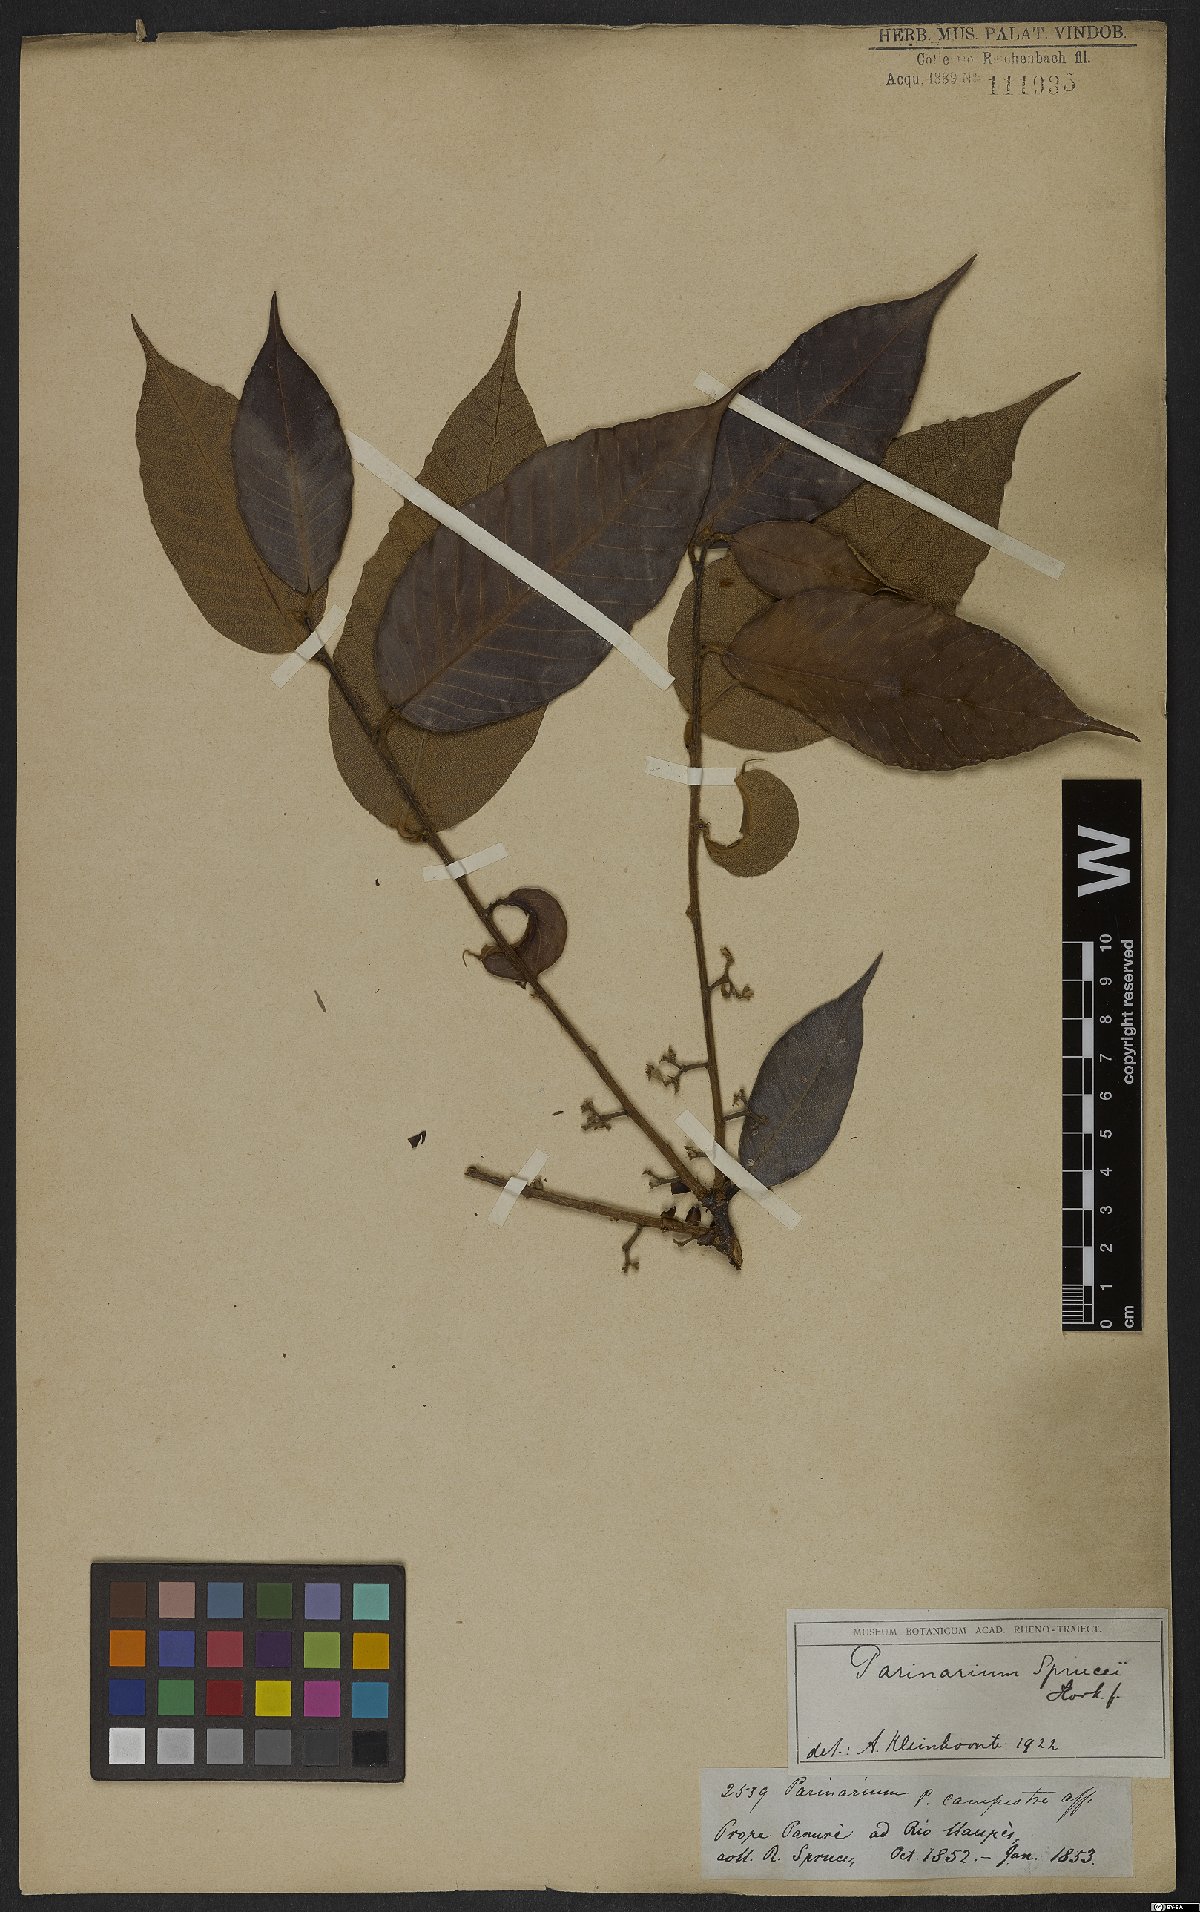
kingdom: Plantae
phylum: Tracheophyta
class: Magnoliopsida
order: Malpighiales
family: Chrysobalanaceae
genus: Parinari
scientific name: Parinari sprucei
